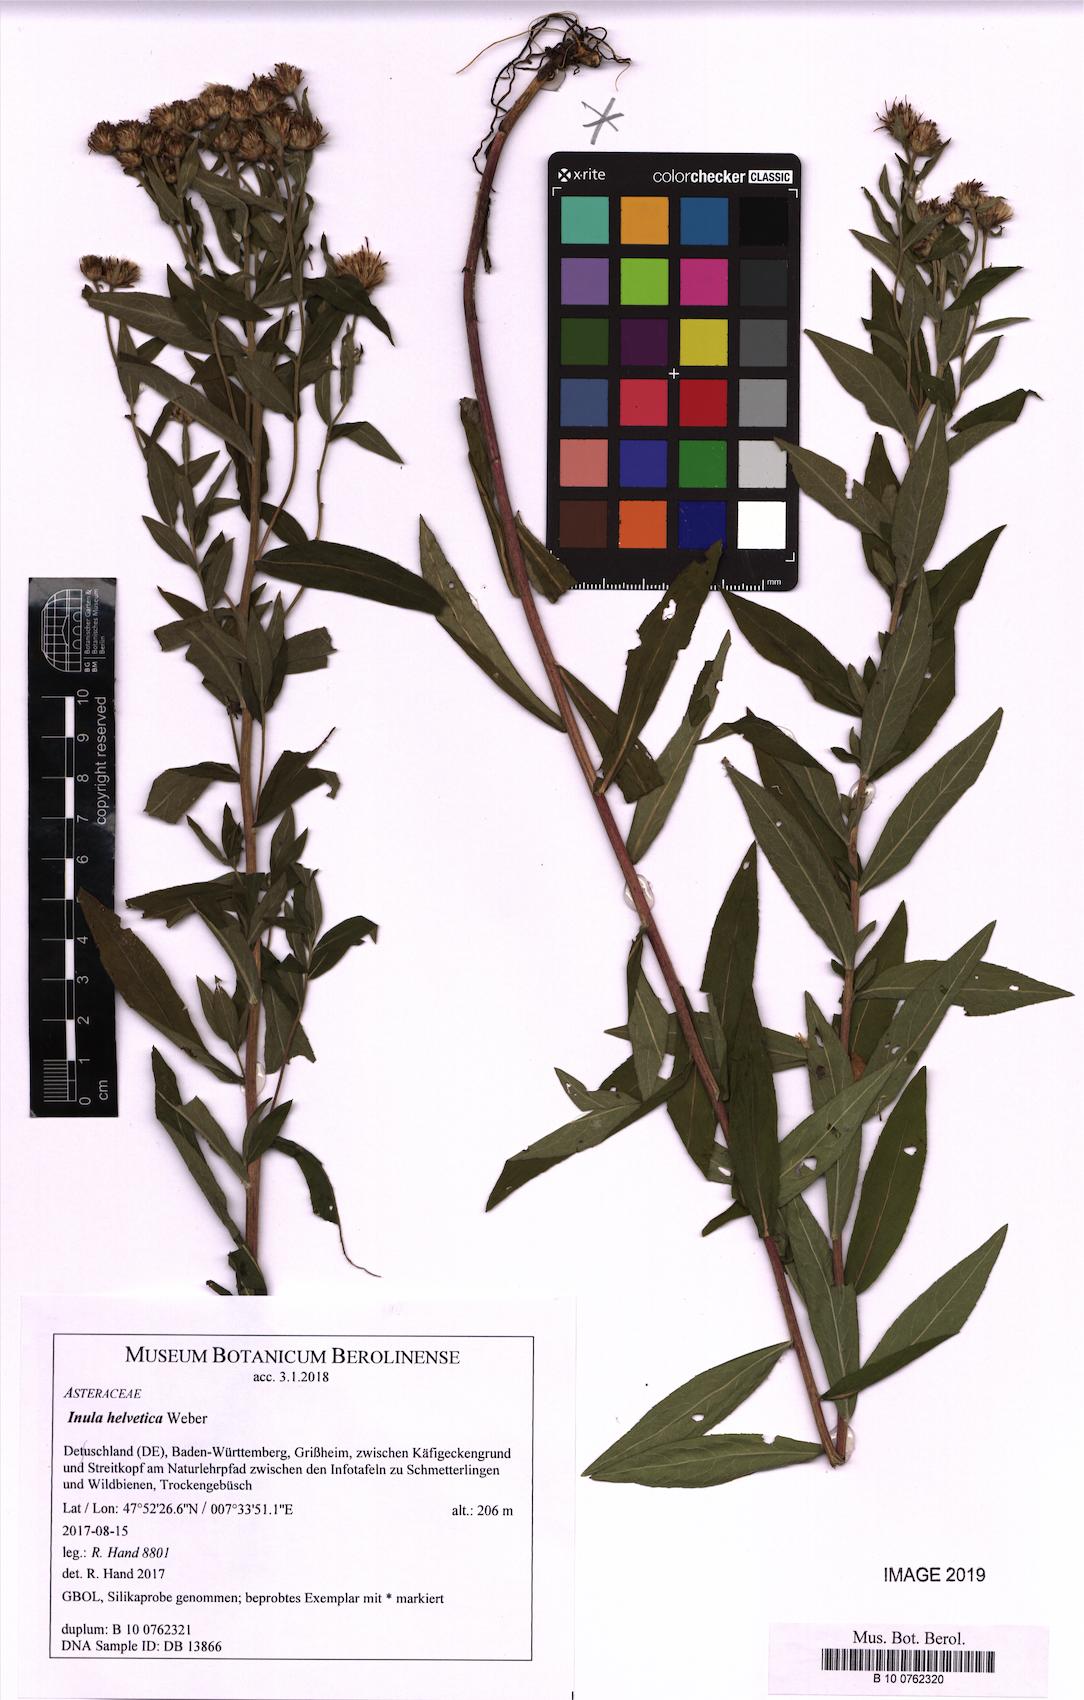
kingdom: Plantae
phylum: Tracheophyta
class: Magnoliopsida
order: Asterales
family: Asteraceae
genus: Pentanema
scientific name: Pentanema helveticum
